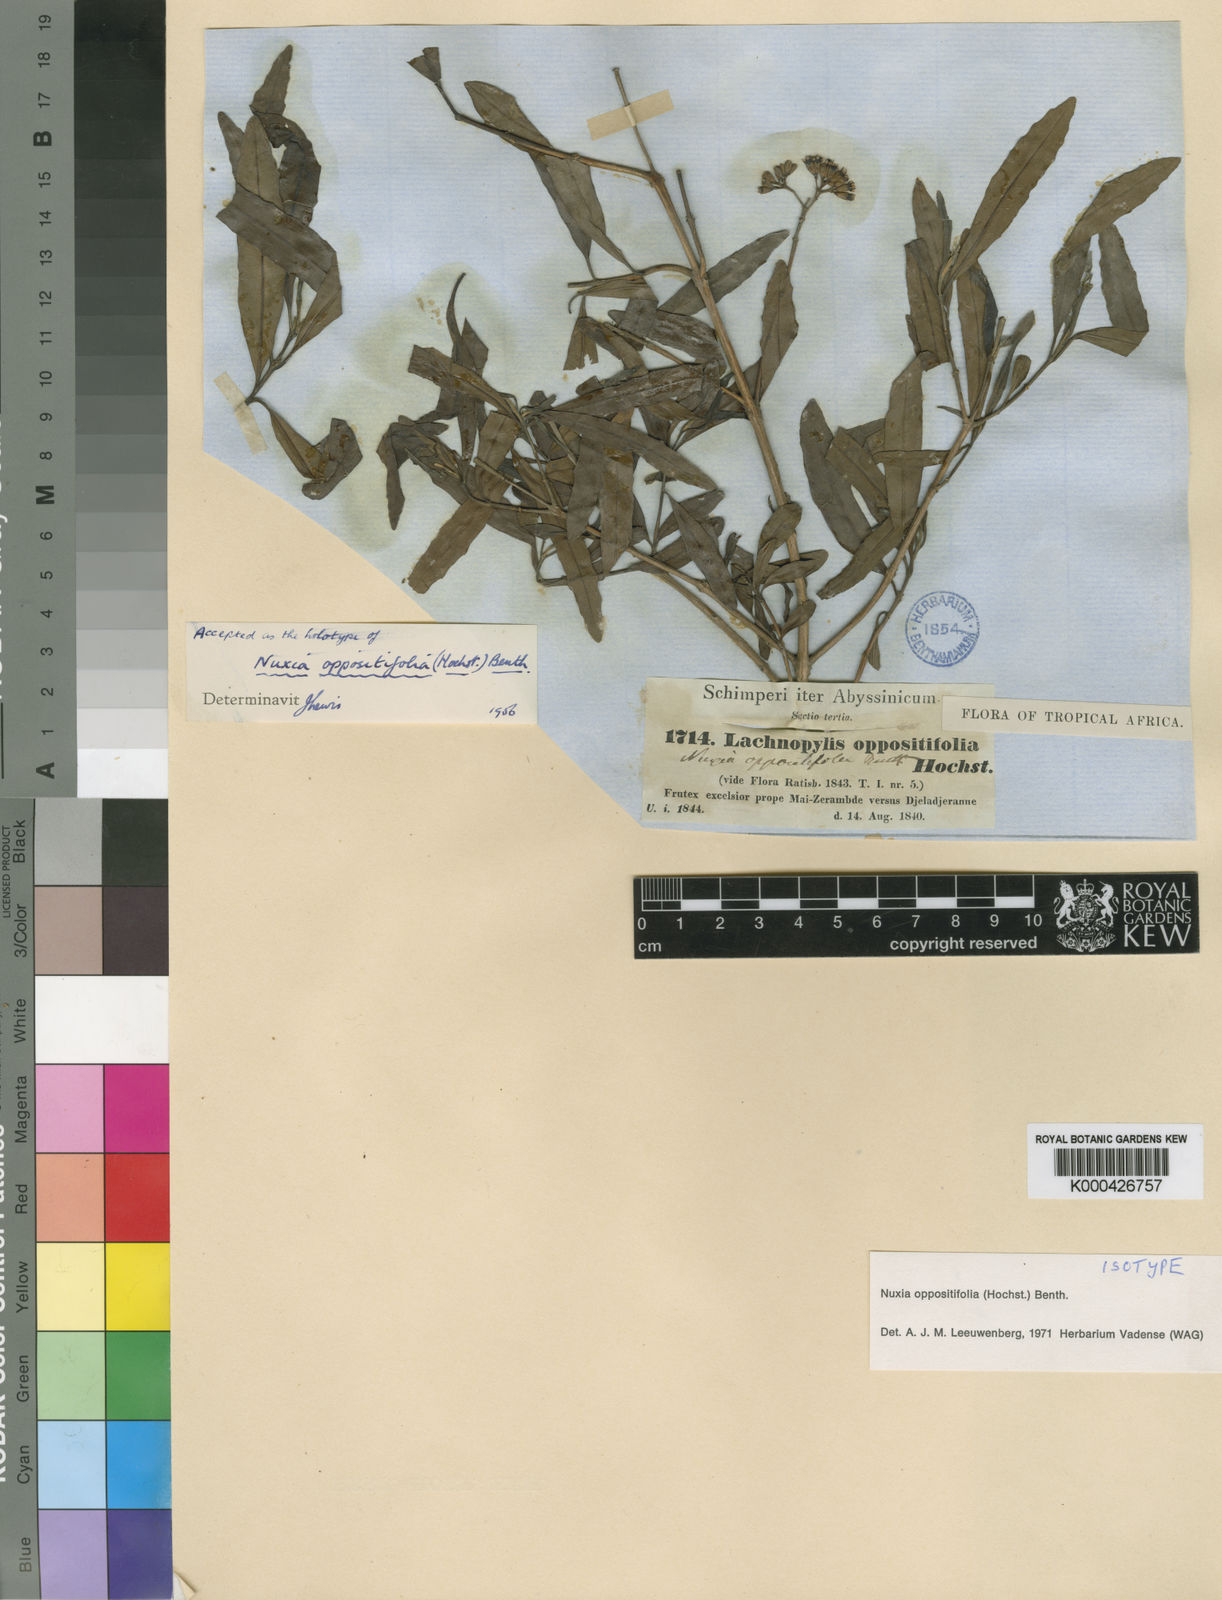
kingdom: Plantae
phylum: Tracheophyta
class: Magnoliopsida
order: Lamiales
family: Stilbaceae
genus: Nuxia
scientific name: Nuxia oppositifolia
